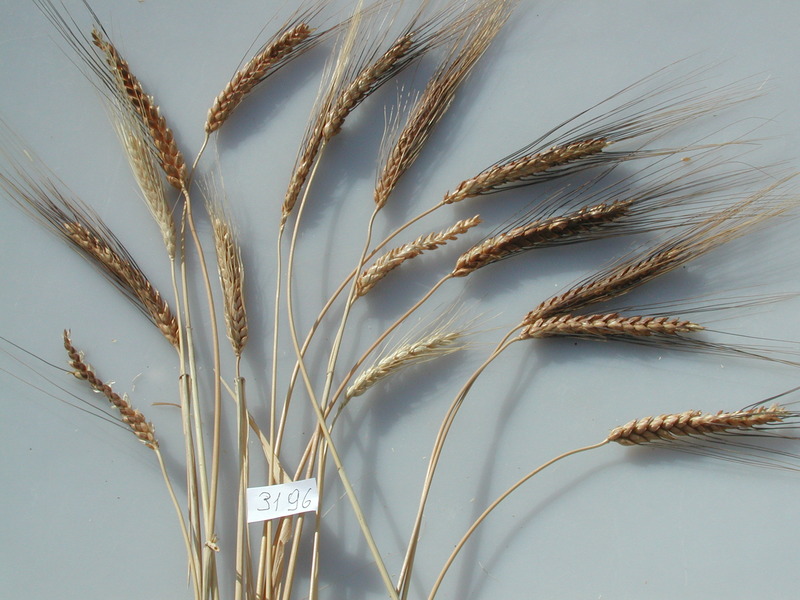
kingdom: Plantae
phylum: Tracheophyta
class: Liliopsida
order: Poales
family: Poaceae
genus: Triticum
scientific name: Triticum aestivum
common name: Wheat
